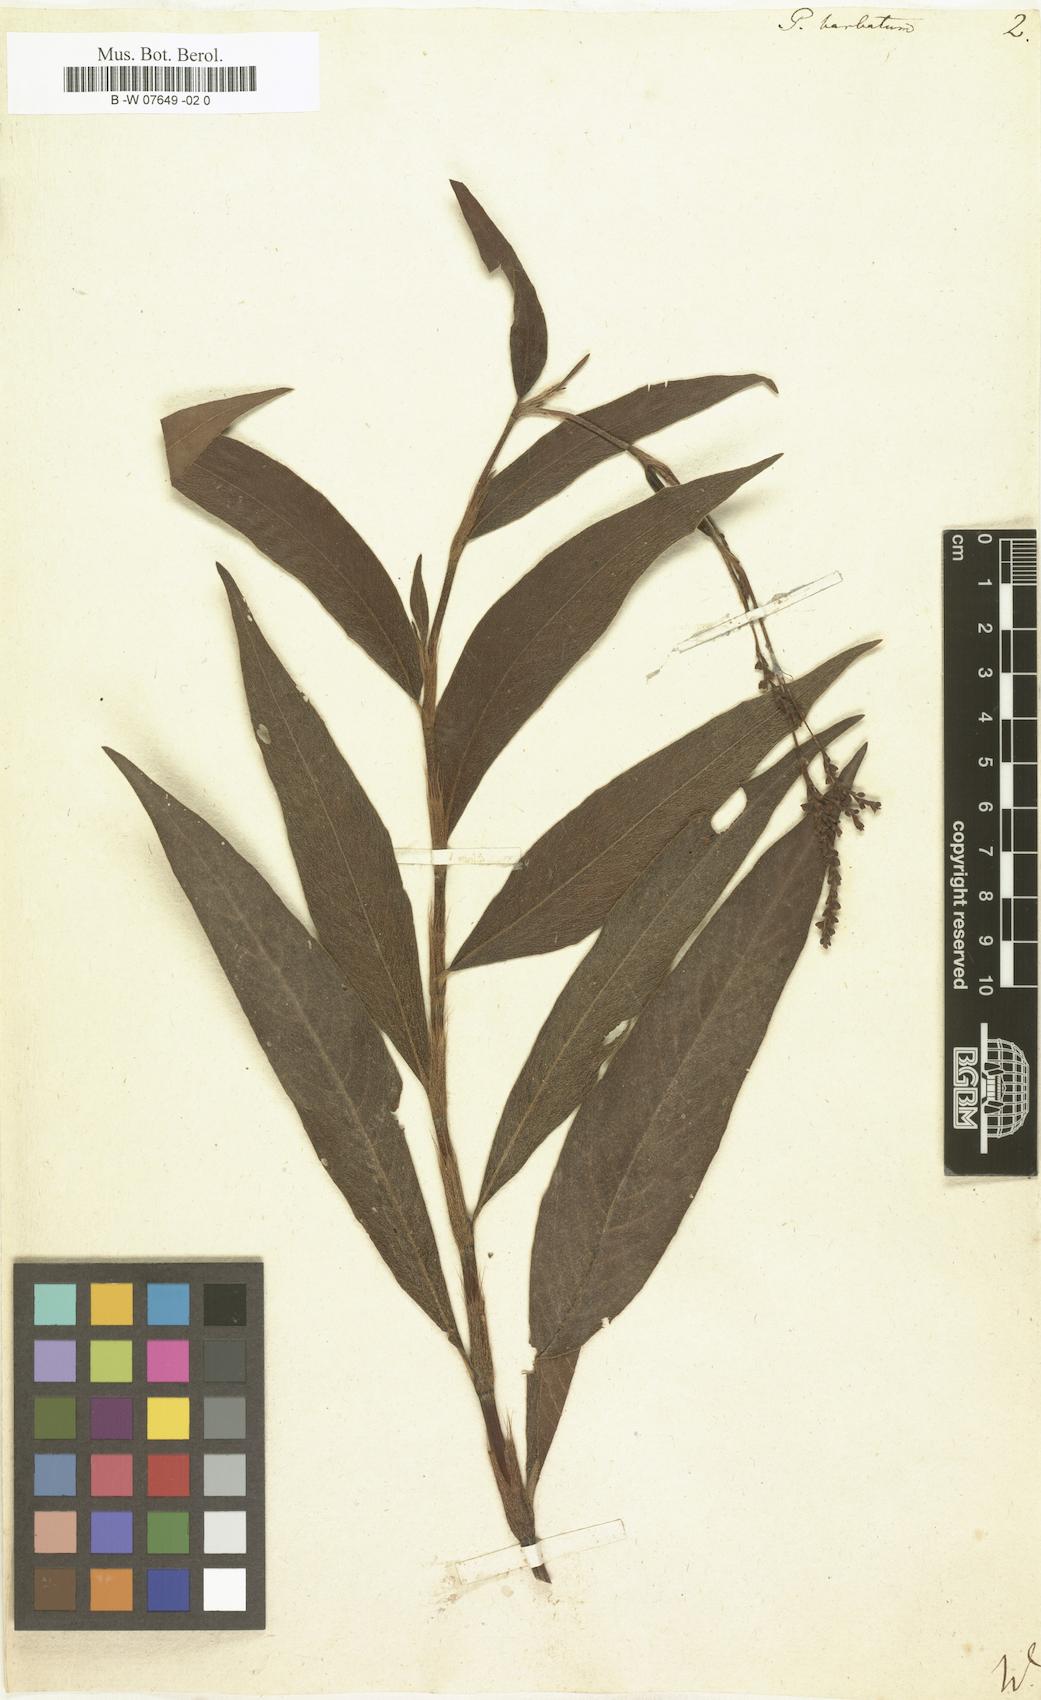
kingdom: Plantae
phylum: Tracheophyta
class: Magnoliopsida
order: Caryophyllales
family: Polygonaceae
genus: Persicaria
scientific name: Persicaria barbata
